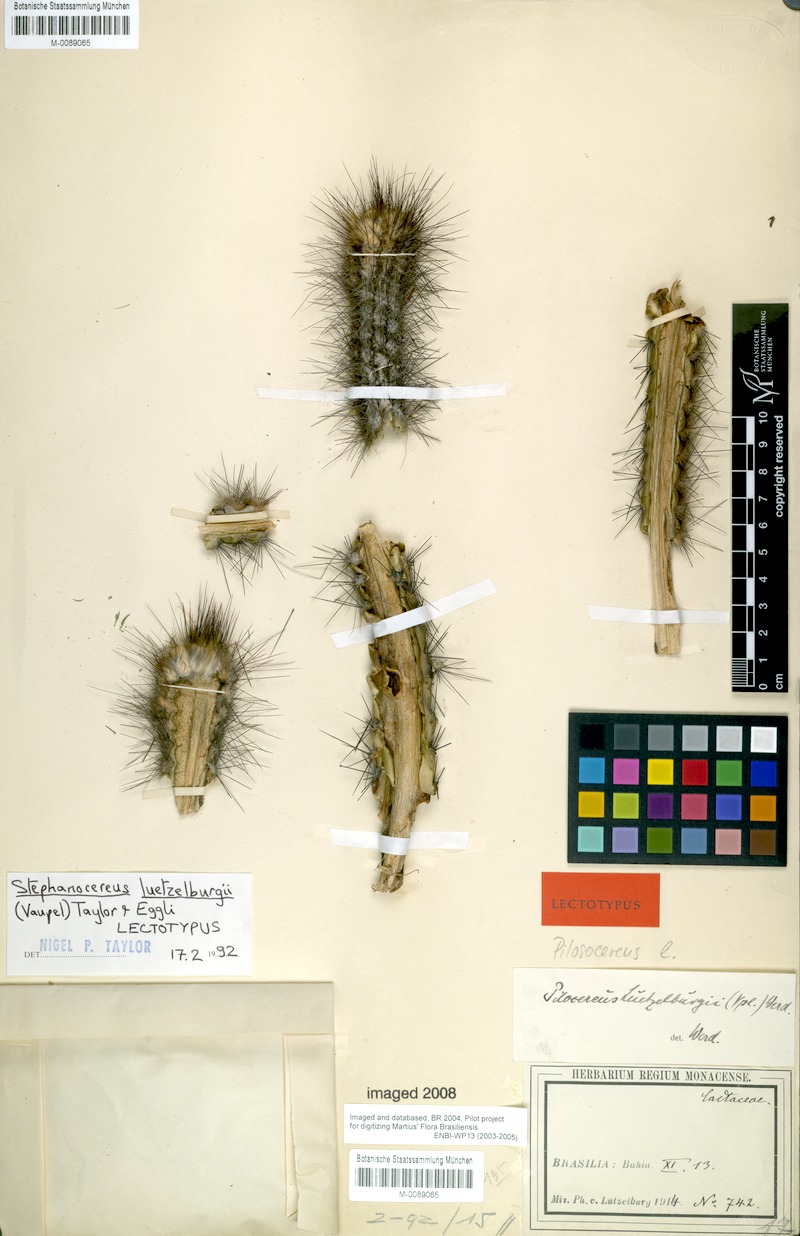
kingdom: Plantae
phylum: Tracheophyta
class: Magnoliopsida
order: Caryophyllales
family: Cactaceae
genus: Lagenosocereus
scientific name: Lagenosocereus luetzelburgii
